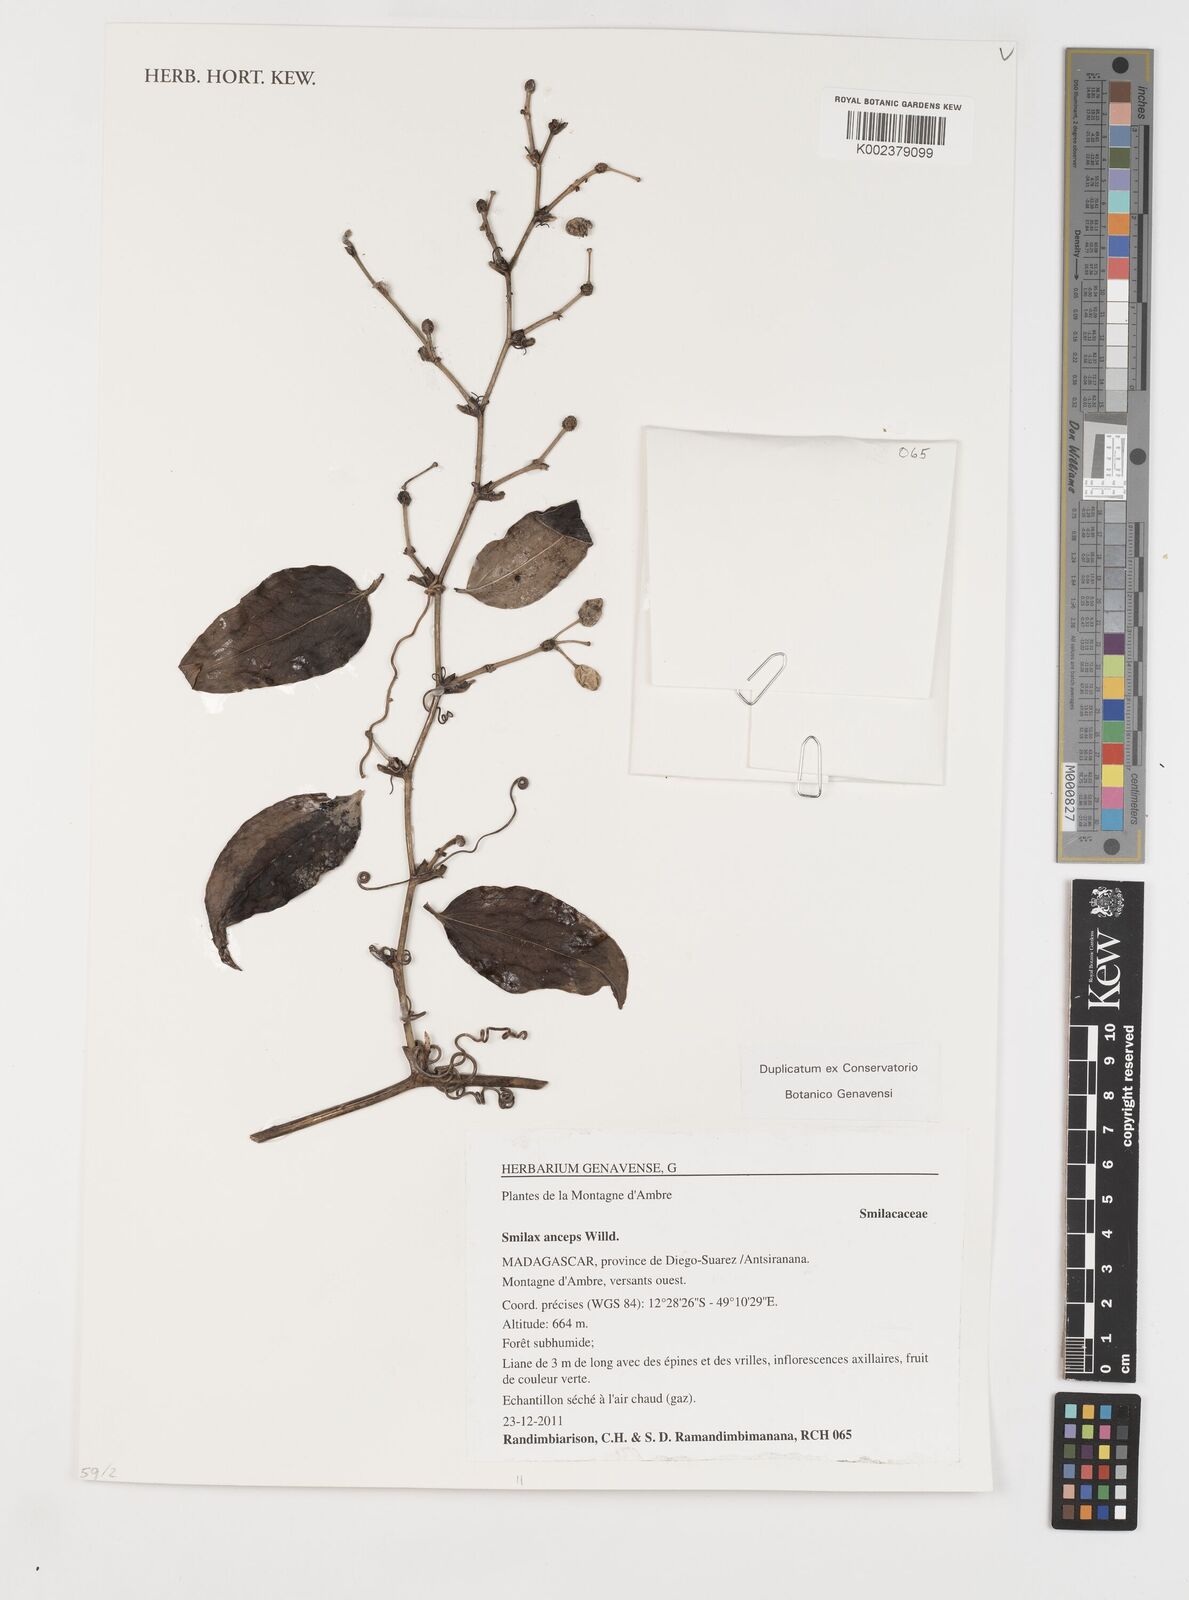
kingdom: Plantae
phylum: Tracheophyta
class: Liliopsida
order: Liliales
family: Smilacaceae
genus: Smilax
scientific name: Smilax anceps
